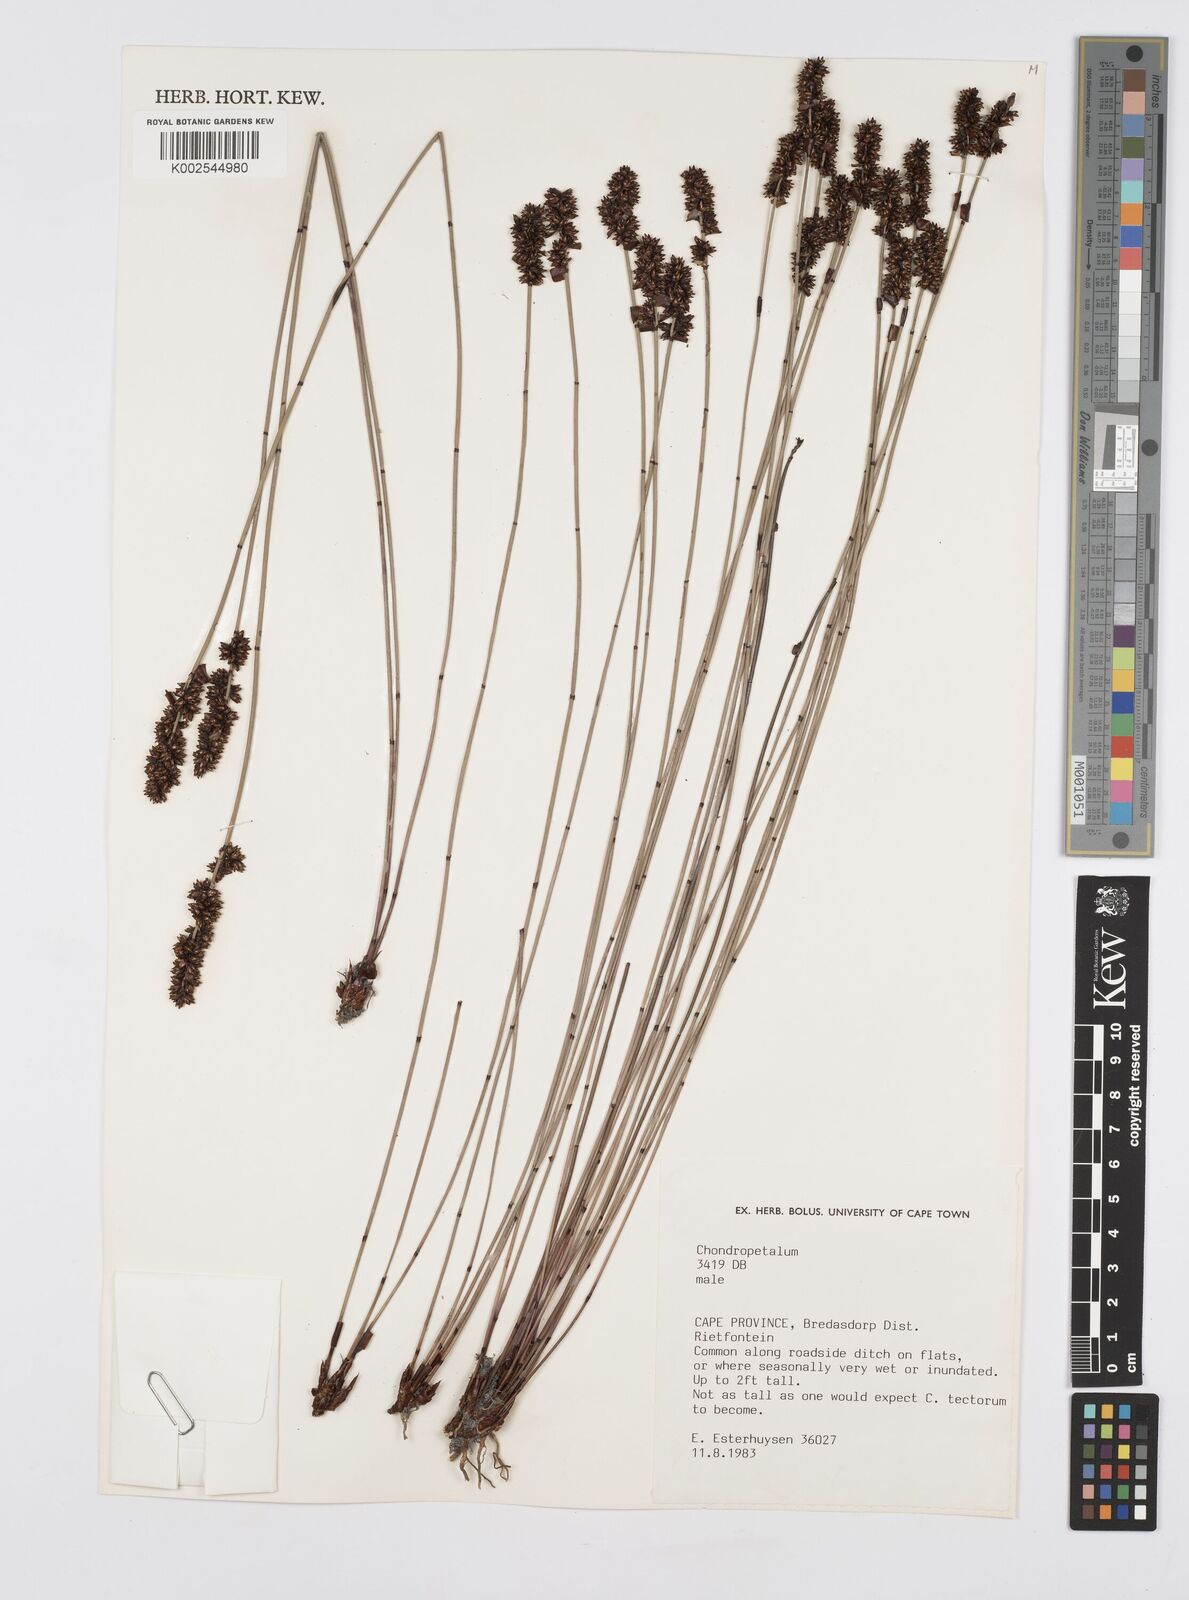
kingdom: Plantae
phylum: Tracheophyta
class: Liliopsida
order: Poales
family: Restionaceae
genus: Elegia
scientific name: Elegia
